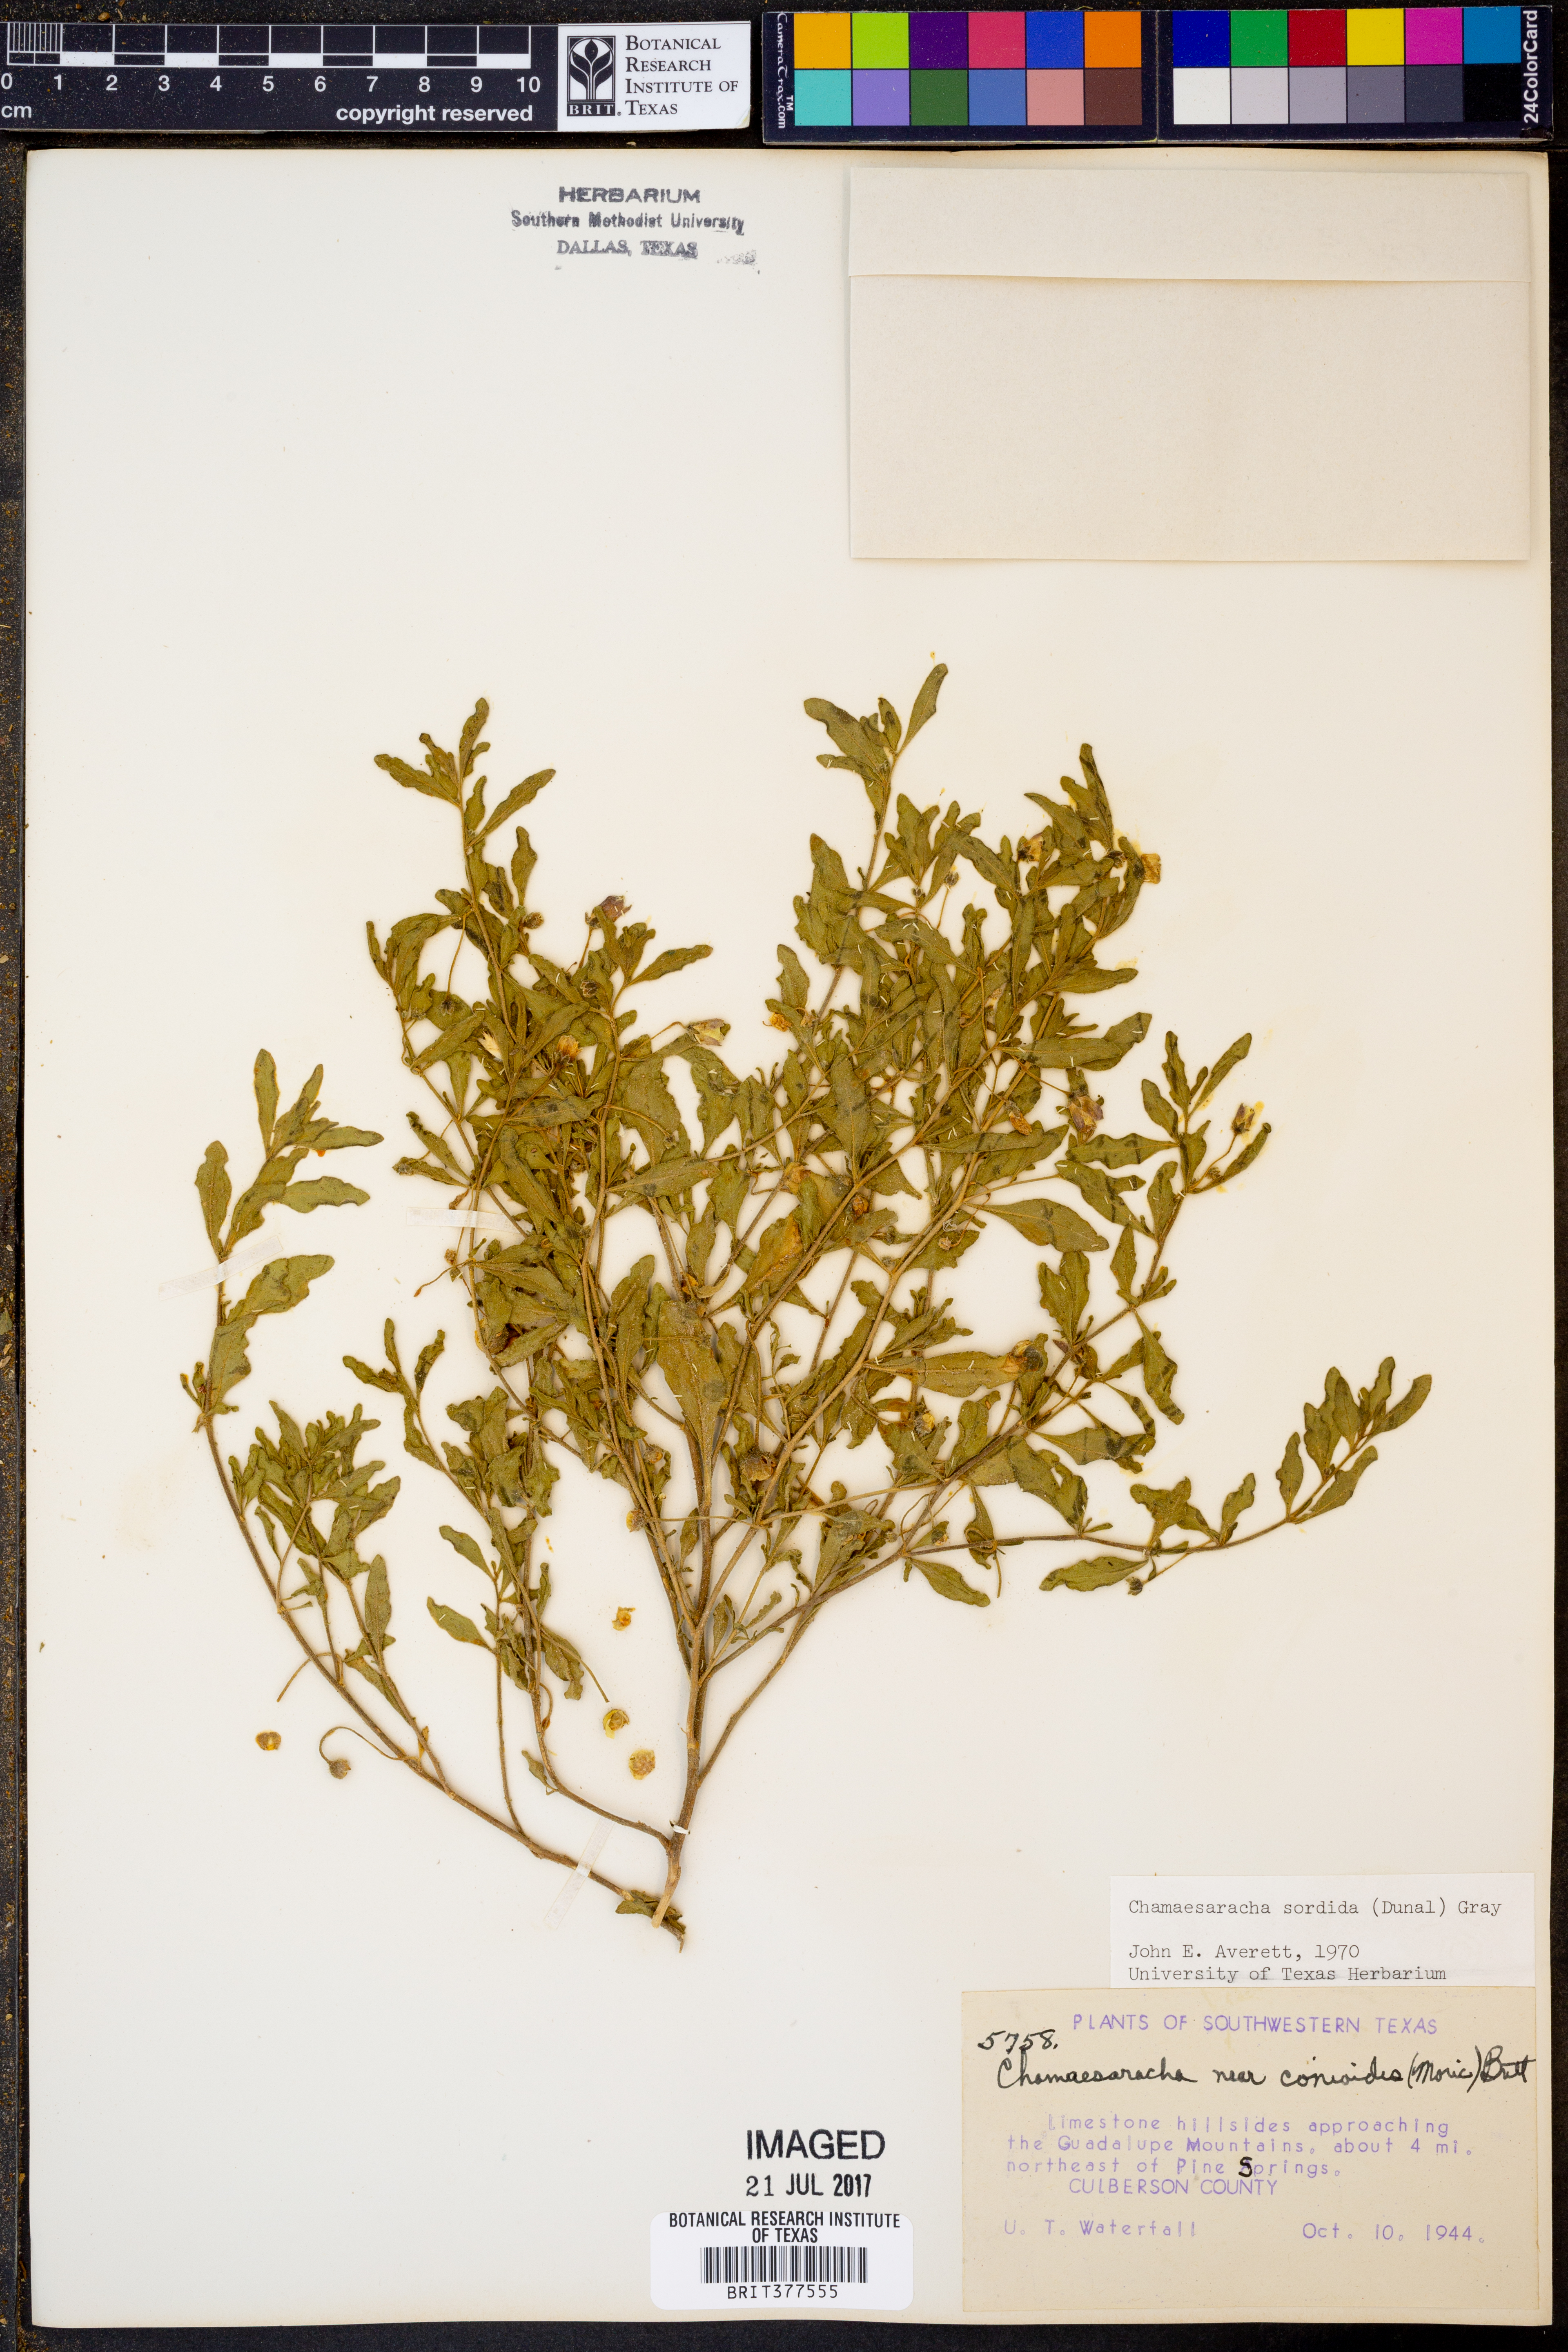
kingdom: Plantae
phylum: Tracheophyta
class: Magnoliopsida
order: Solanales
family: Solanaceae
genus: Chamaesaracha
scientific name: Chamaesaracha sordida
